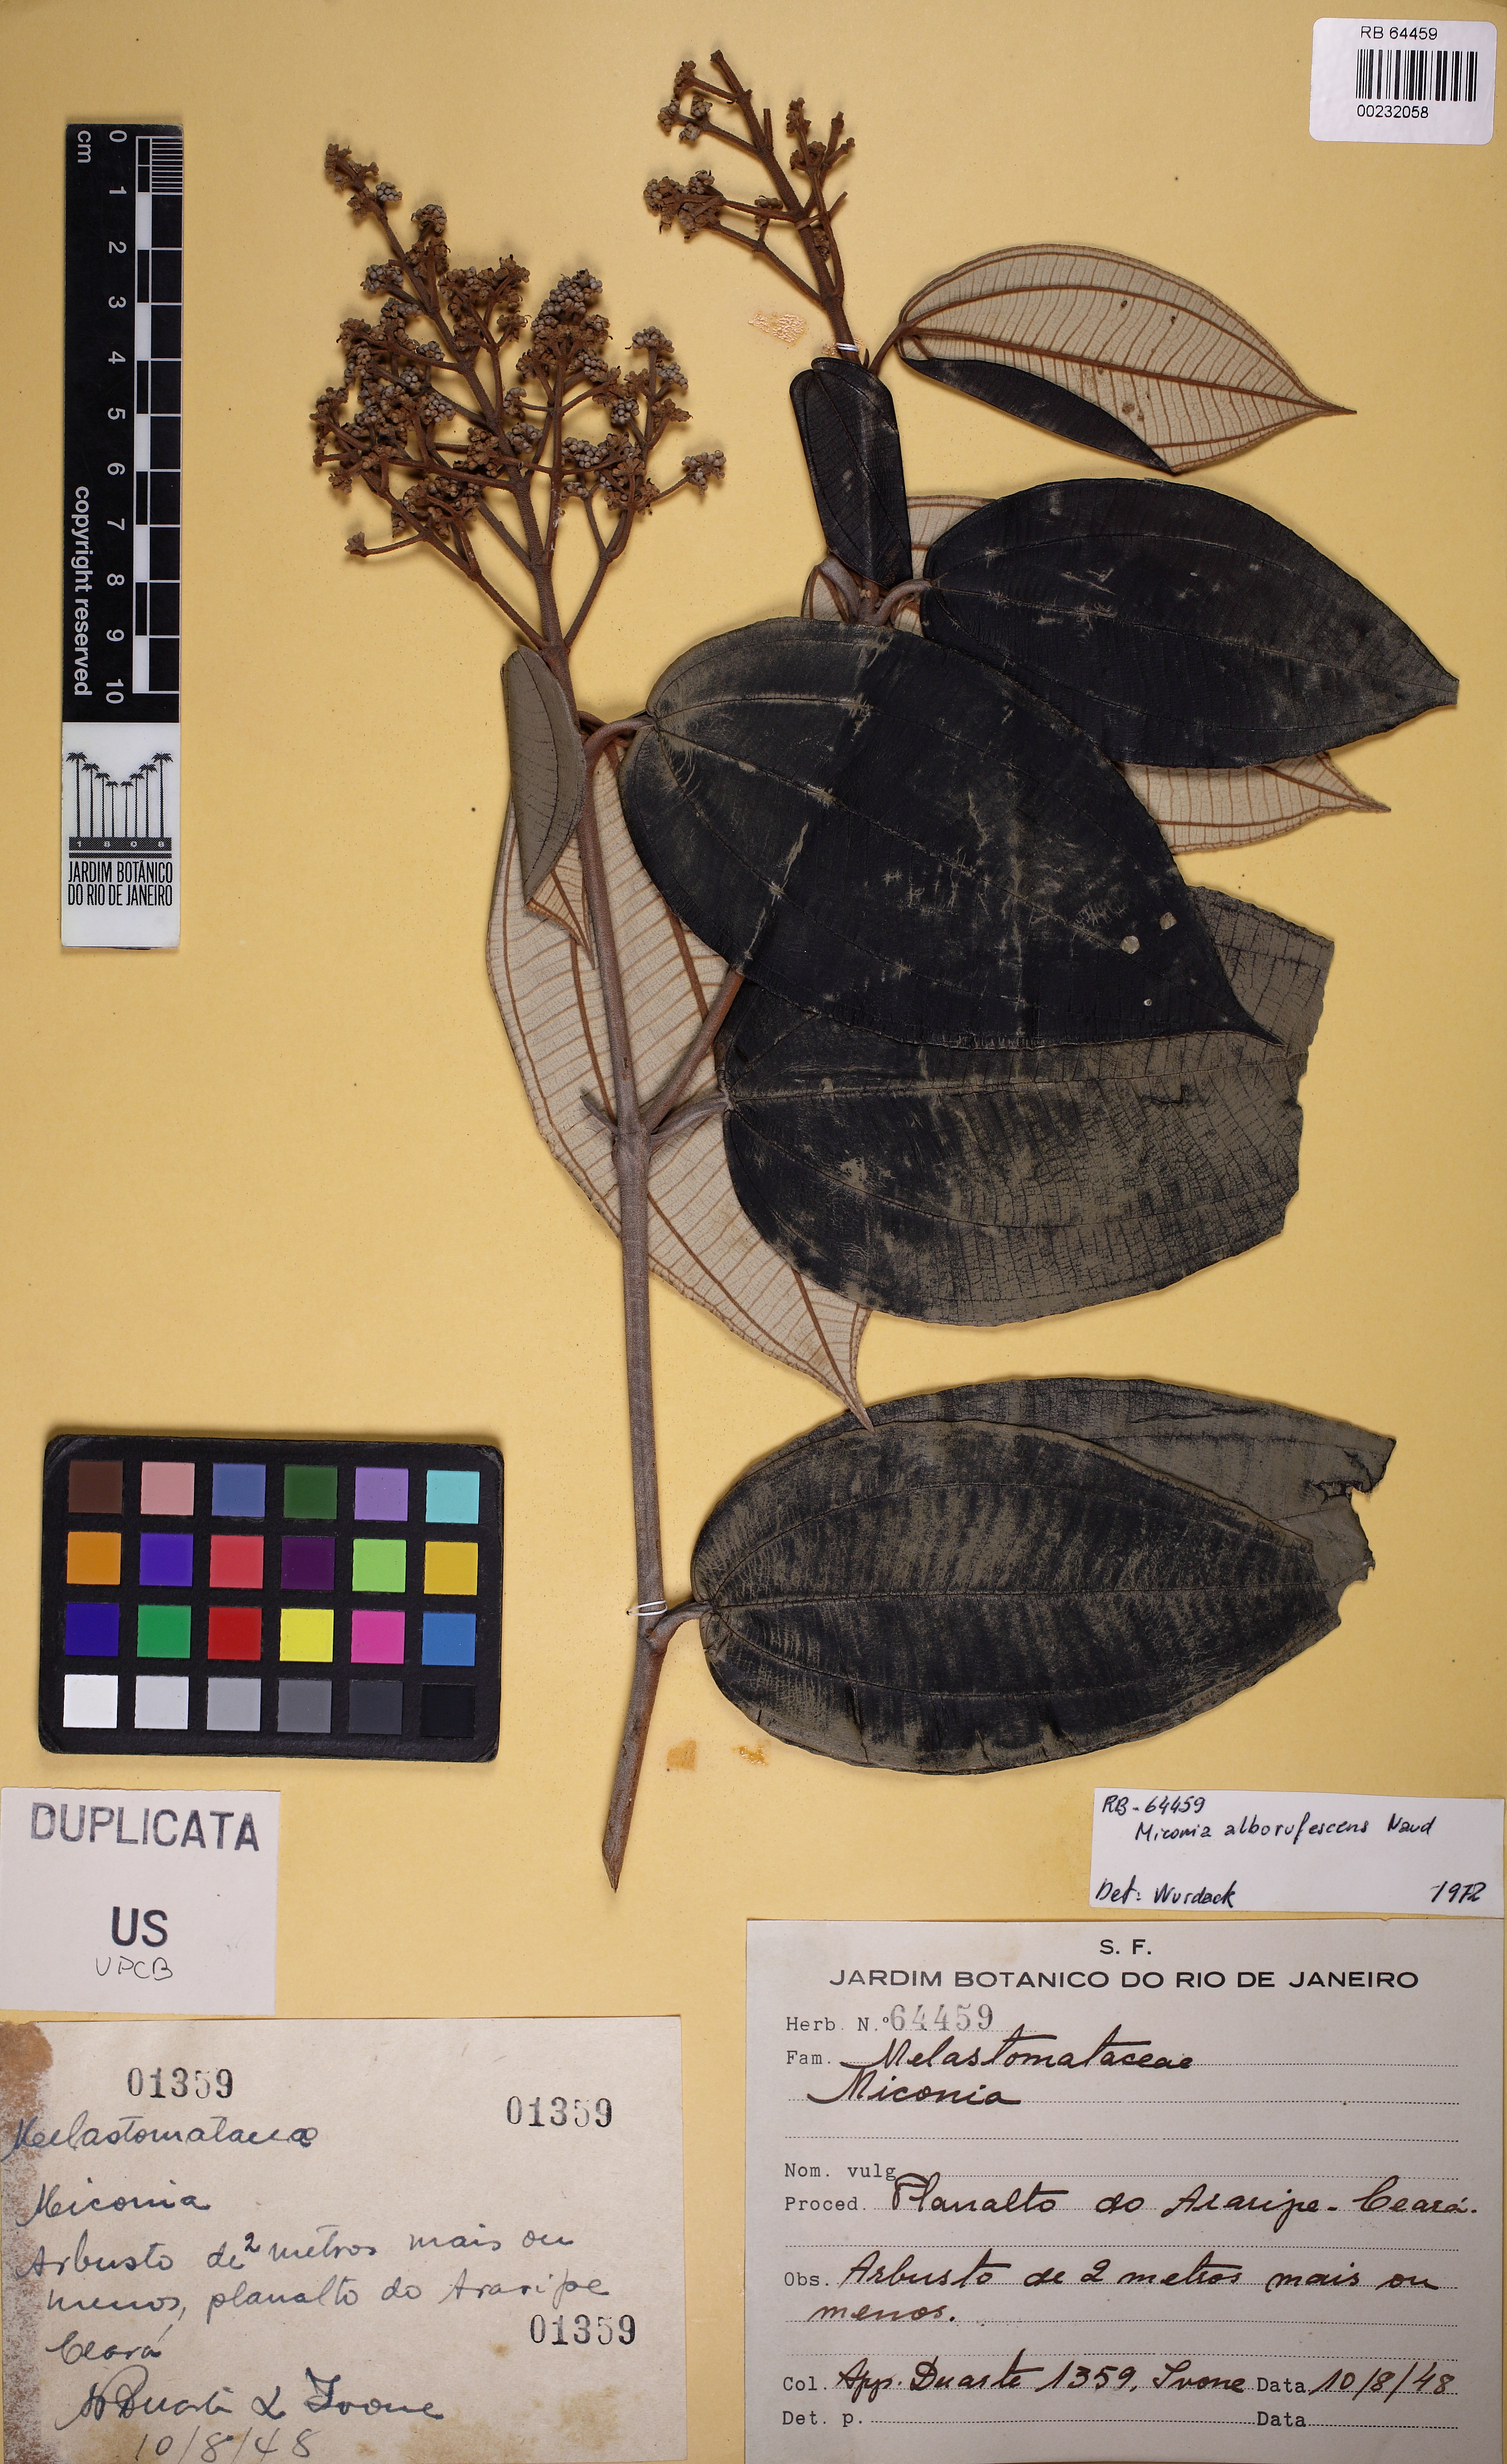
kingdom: Plantae
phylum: Tracheophyta
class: Magnoliopsida
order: Myrtales
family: Melastomataceae
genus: Miconia
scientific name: Miconia alborufescens
